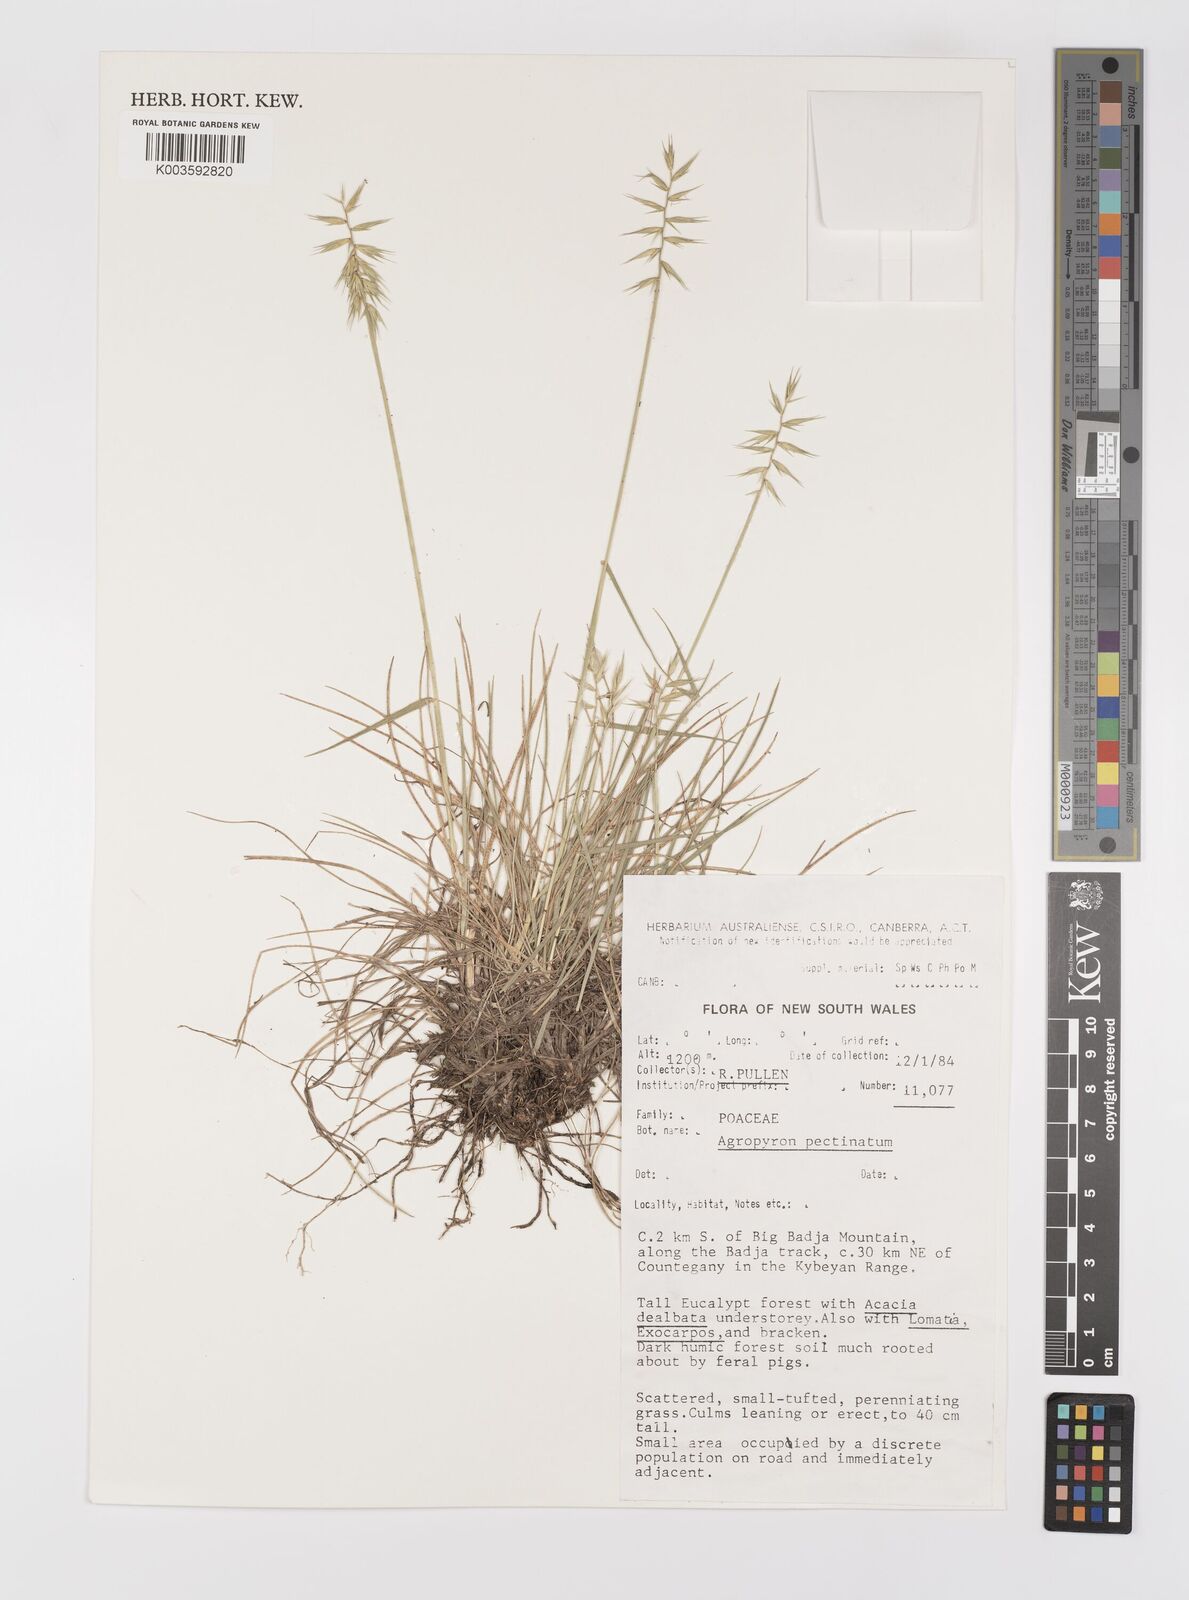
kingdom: Plantae
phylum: Tracheophyta
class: Liliopsida
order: Poales
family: Poaceae
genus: Australopyrum
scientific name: Australopyrum pectinatum
